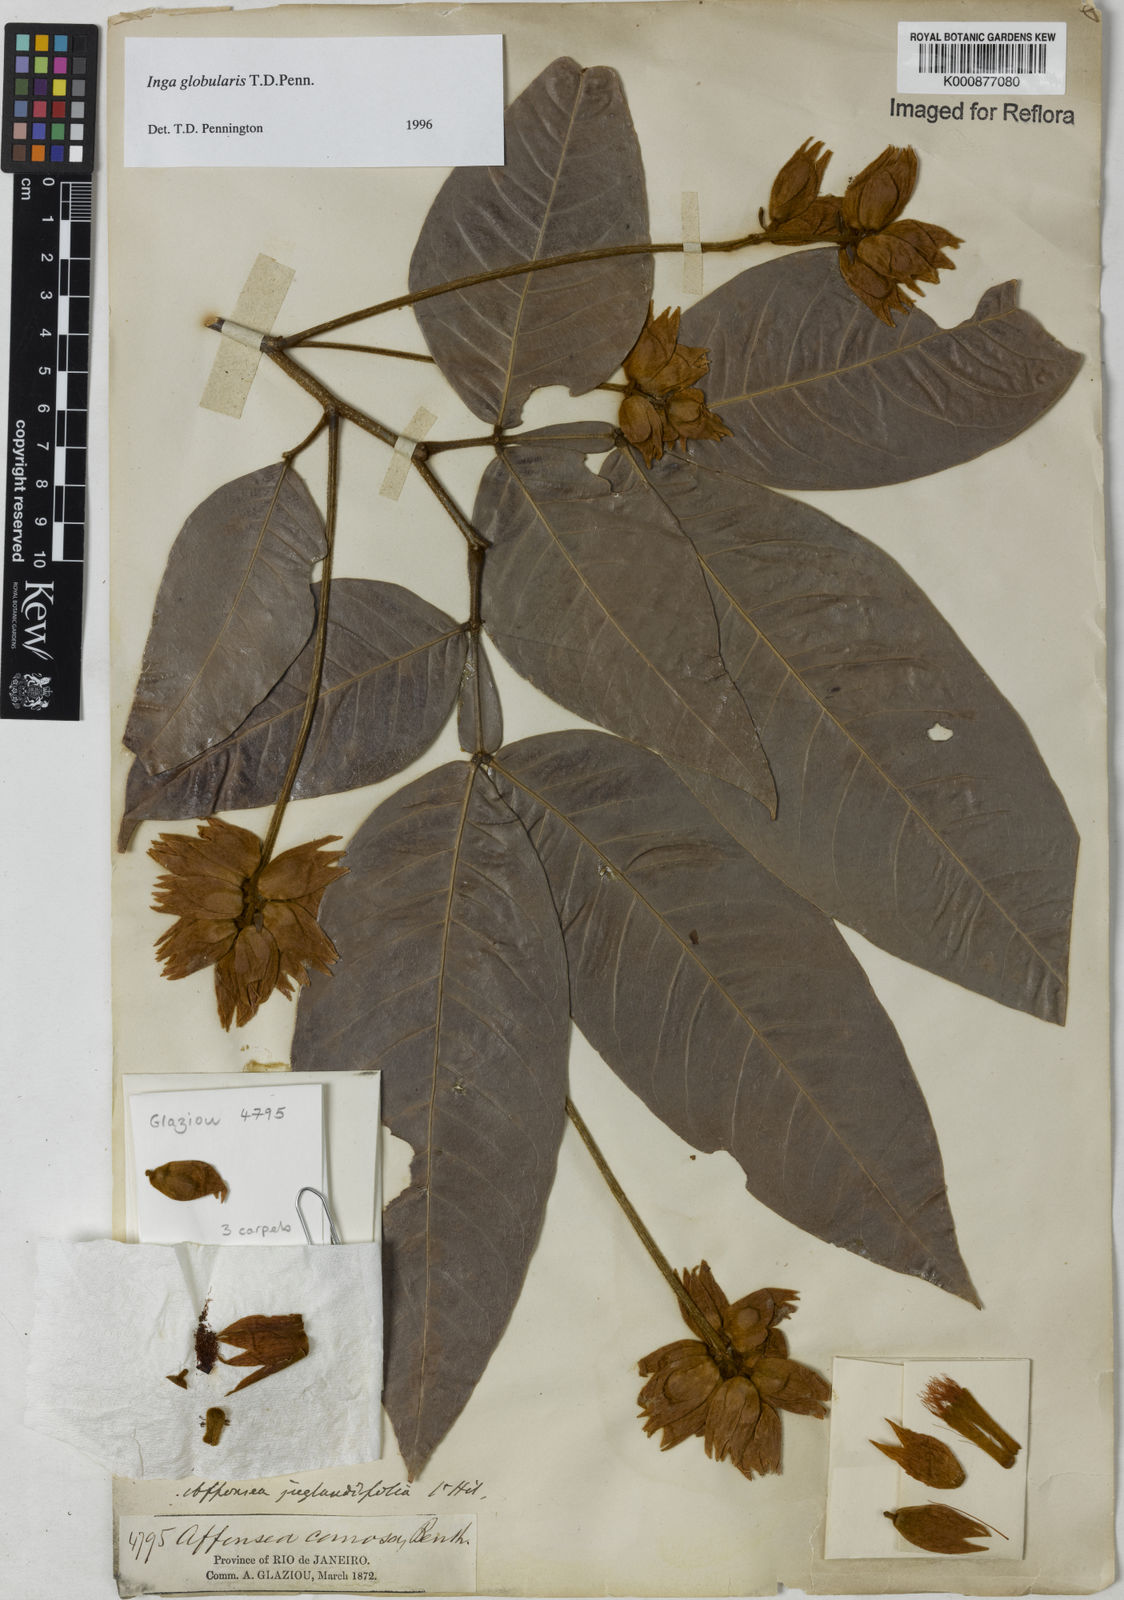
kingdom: Plantae
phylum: Tracheophyta
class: Magnoliopsida
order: Fabales
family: Fabaceae
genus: Inga
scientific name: Inga globularis
